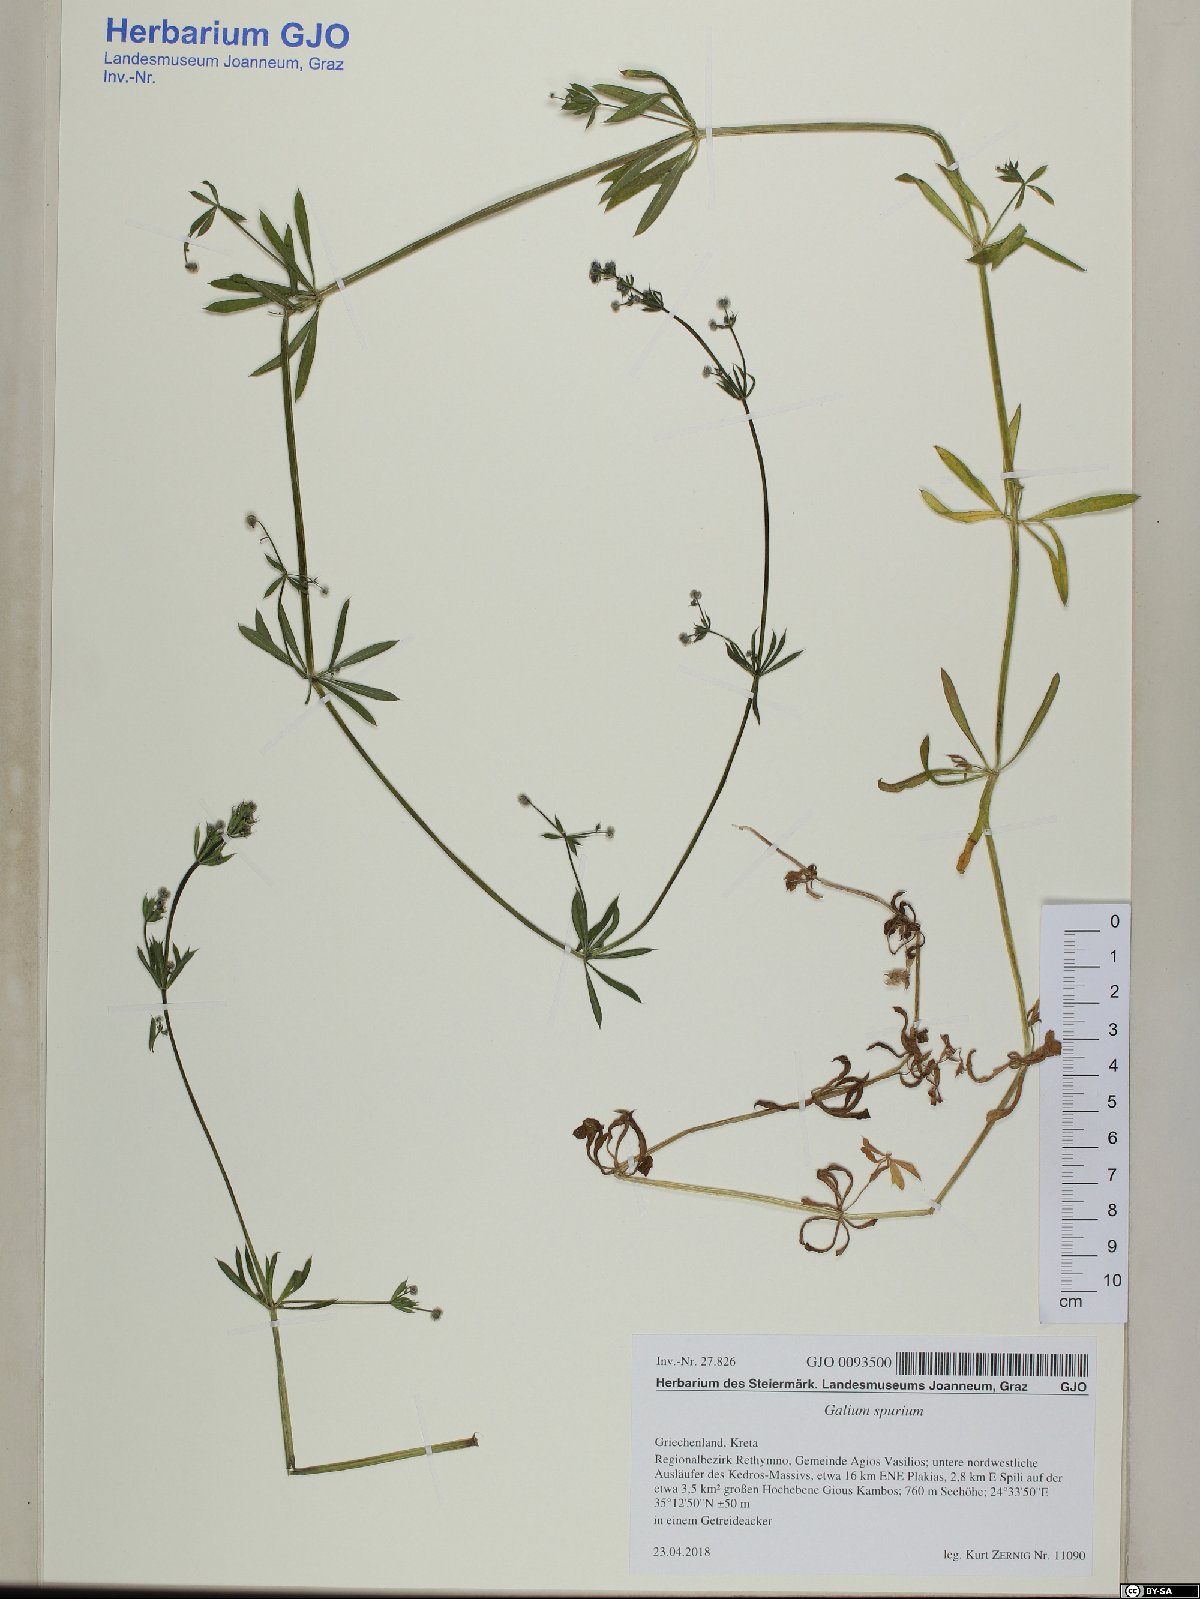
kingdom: Plantae
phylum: Tracheophyta
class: Magnoliopsida
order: Gentianales
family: Rubiaceae
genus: Galium
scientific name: Galium spurium
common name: False cleavers
